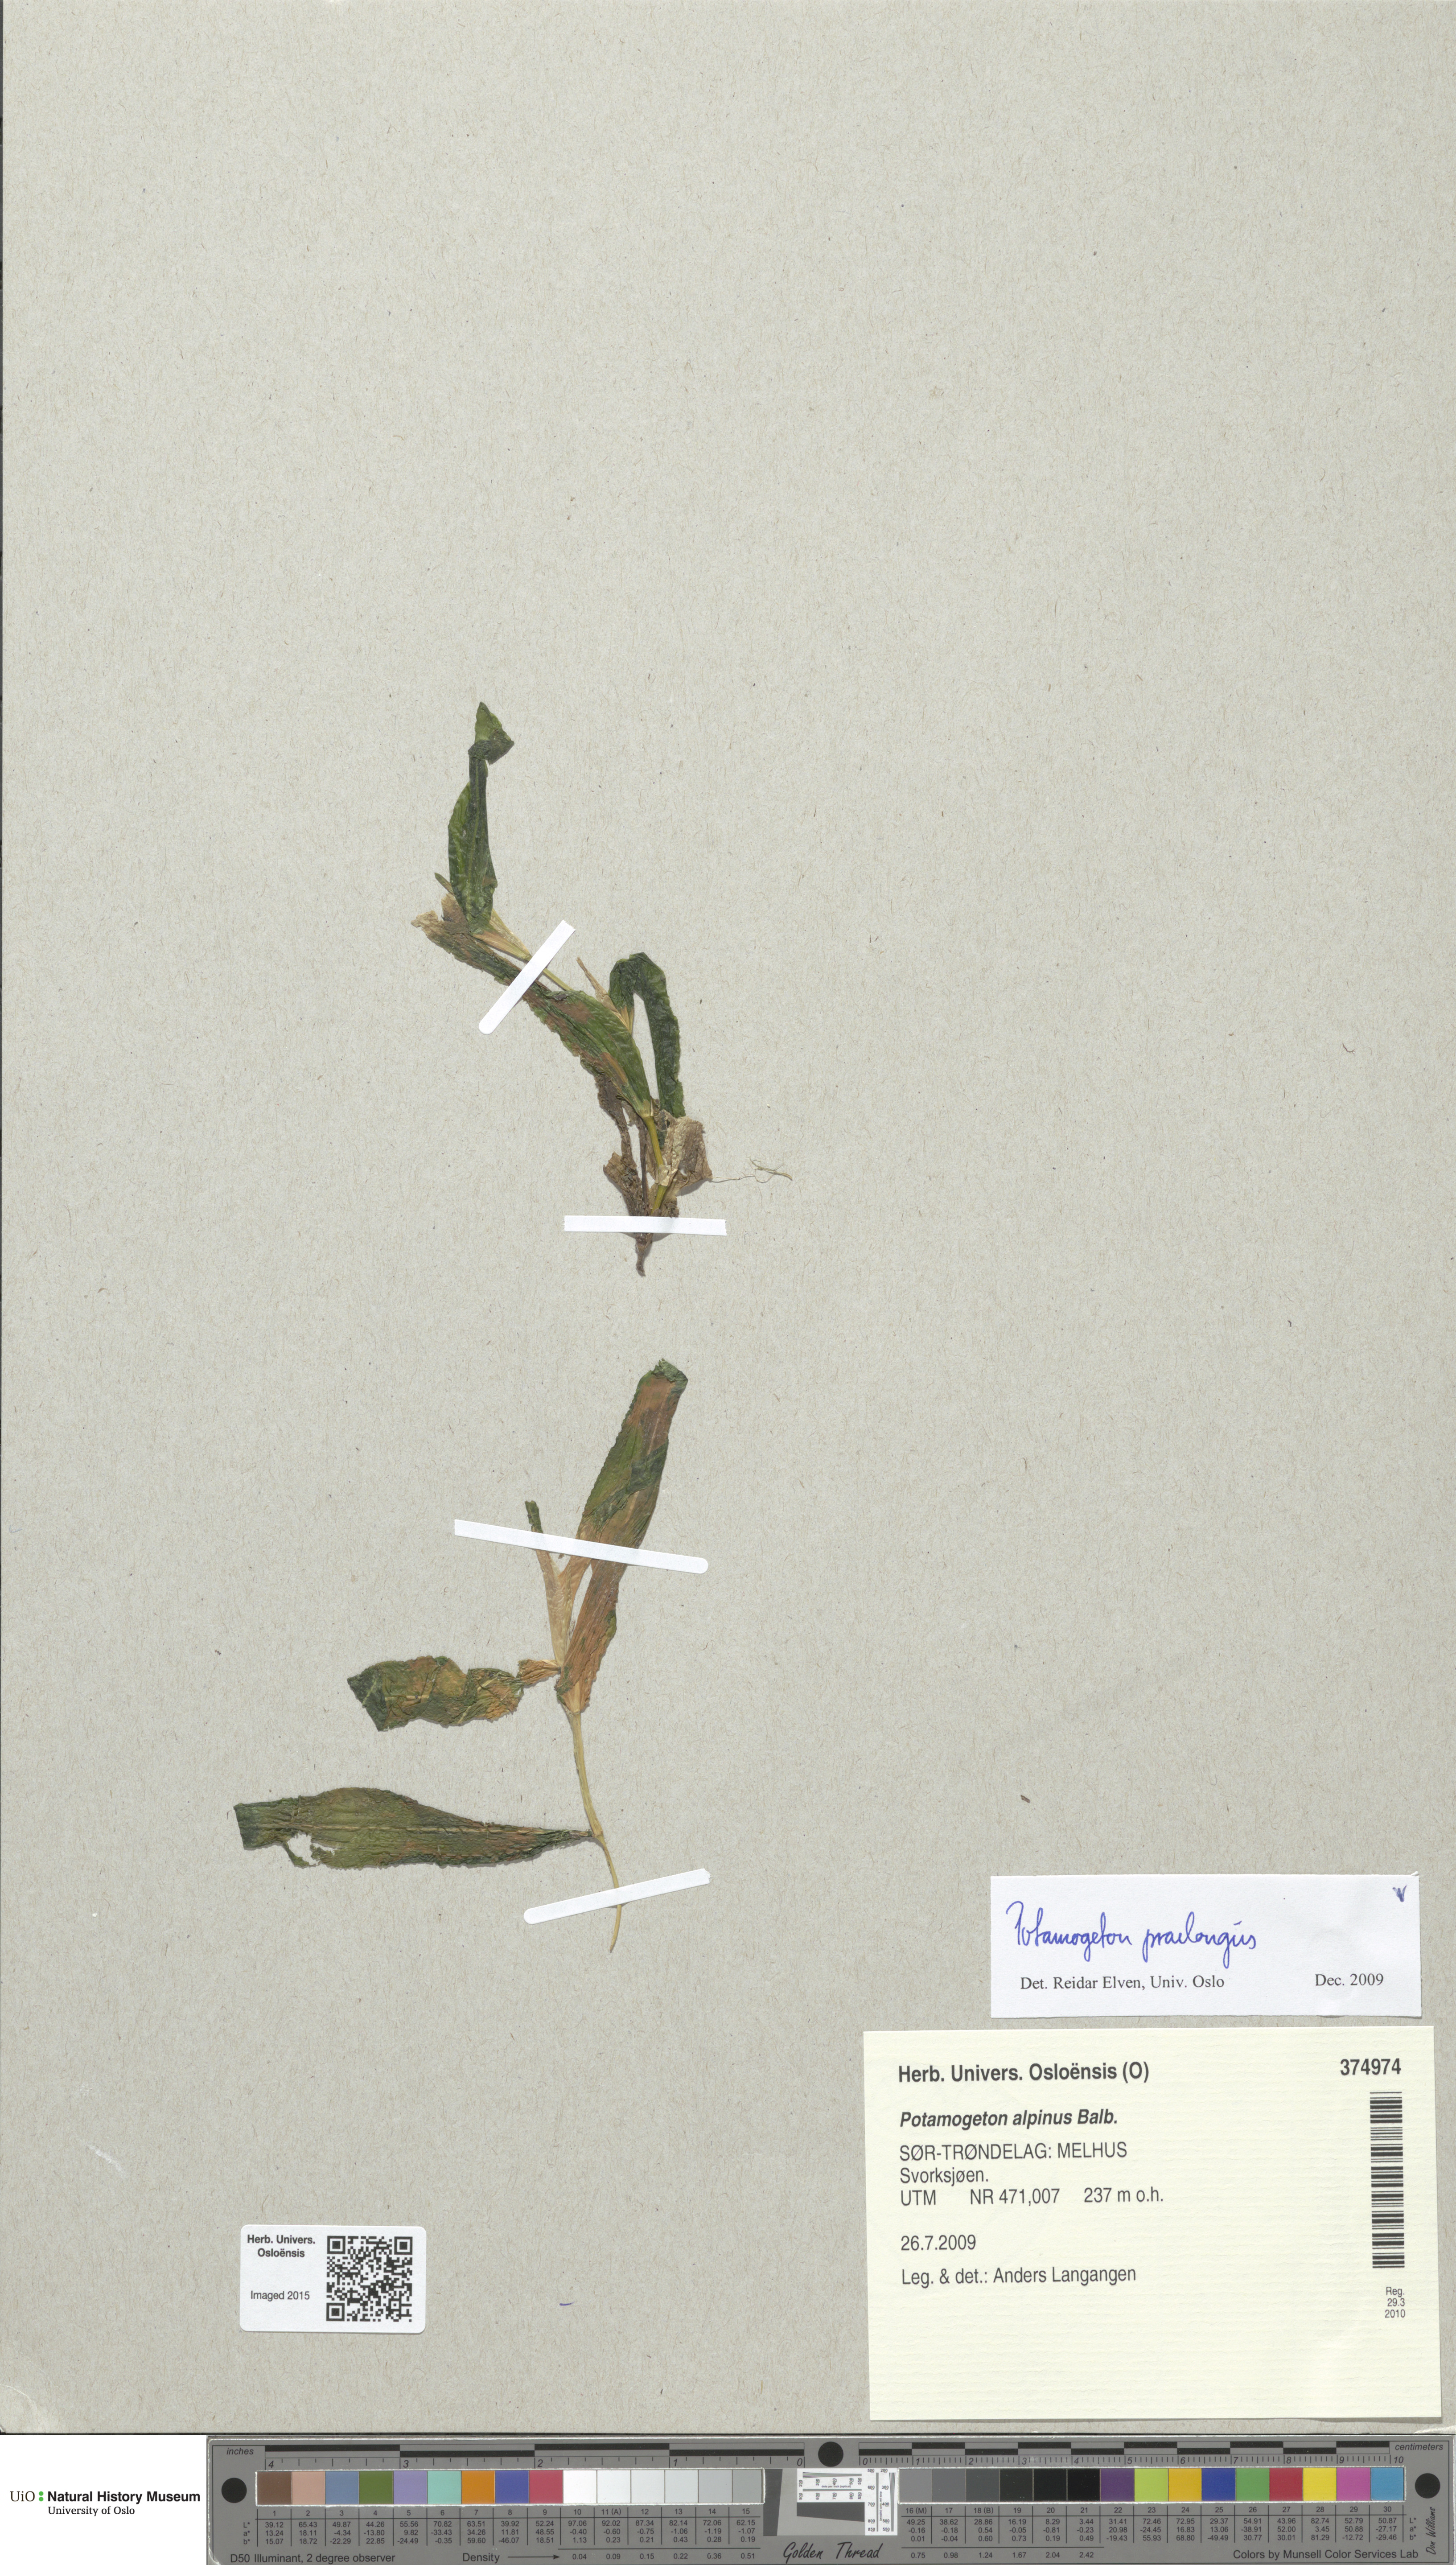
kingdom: Plantae
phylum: Tracheophyta
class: Liliopsida
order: Alismatales
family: Potamogetonaceae
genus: Potamogeton
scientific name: Potamogeton praelongus
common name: Long-stalked pondweed
